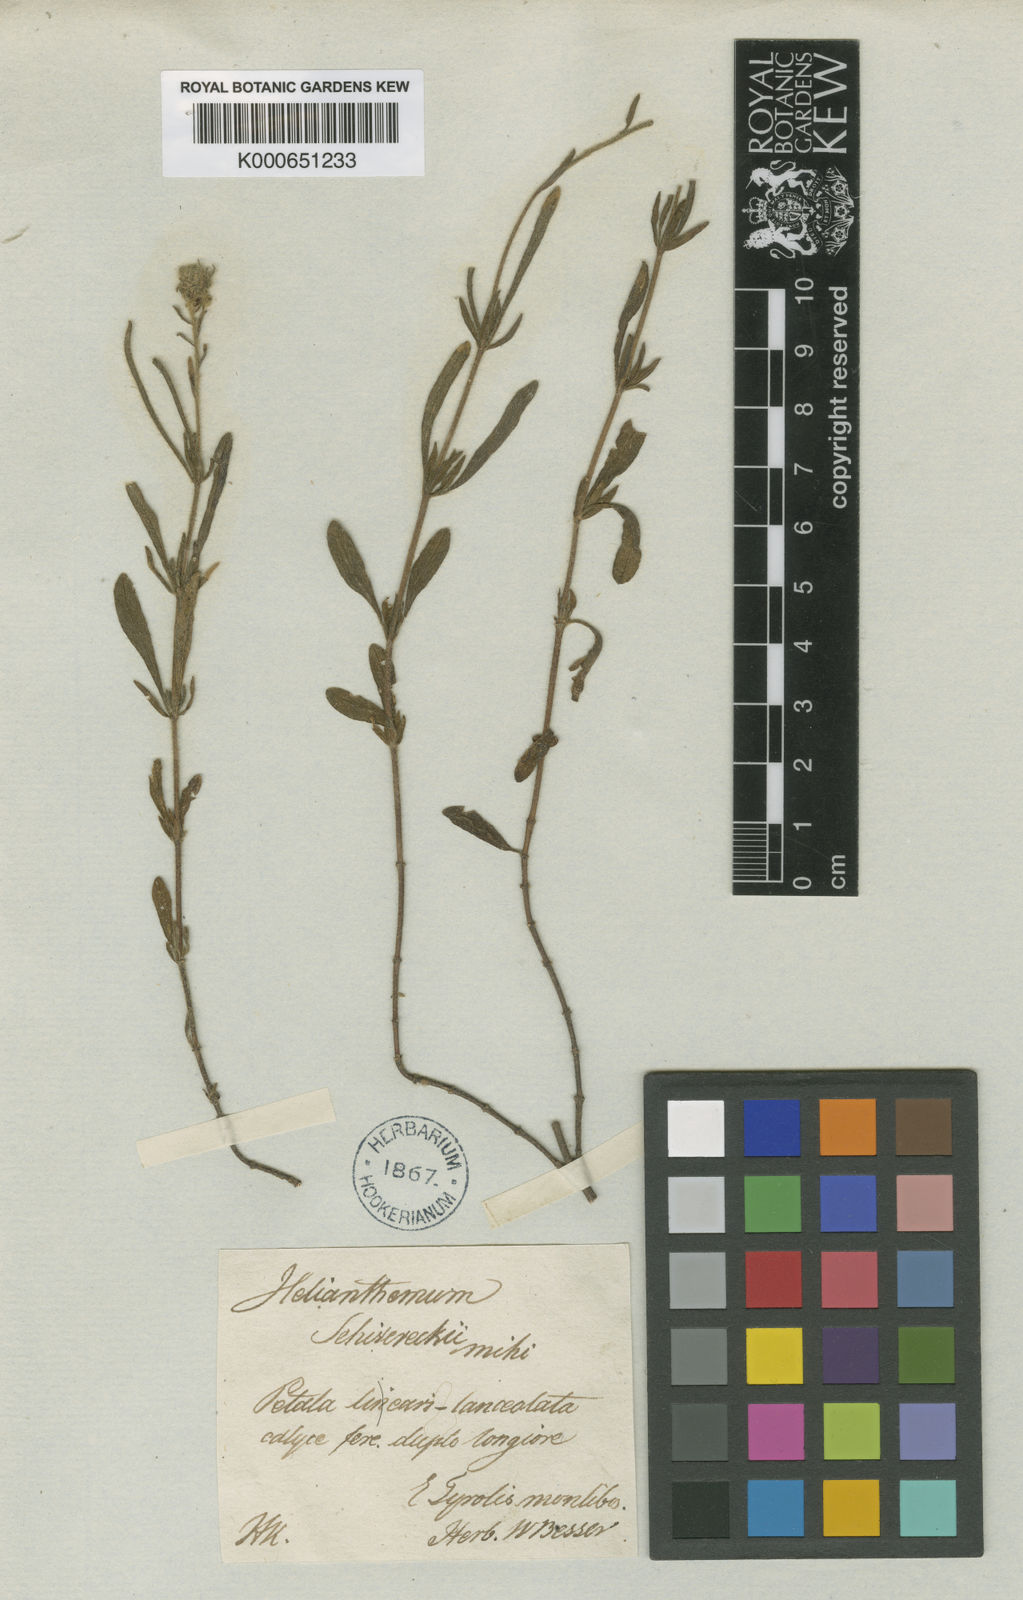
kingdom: Plantae
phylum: Tracheophyta
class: Magnoliopsida
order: Malvales
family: Cistaceae
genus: Helianthemum
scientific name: Helianthemum
